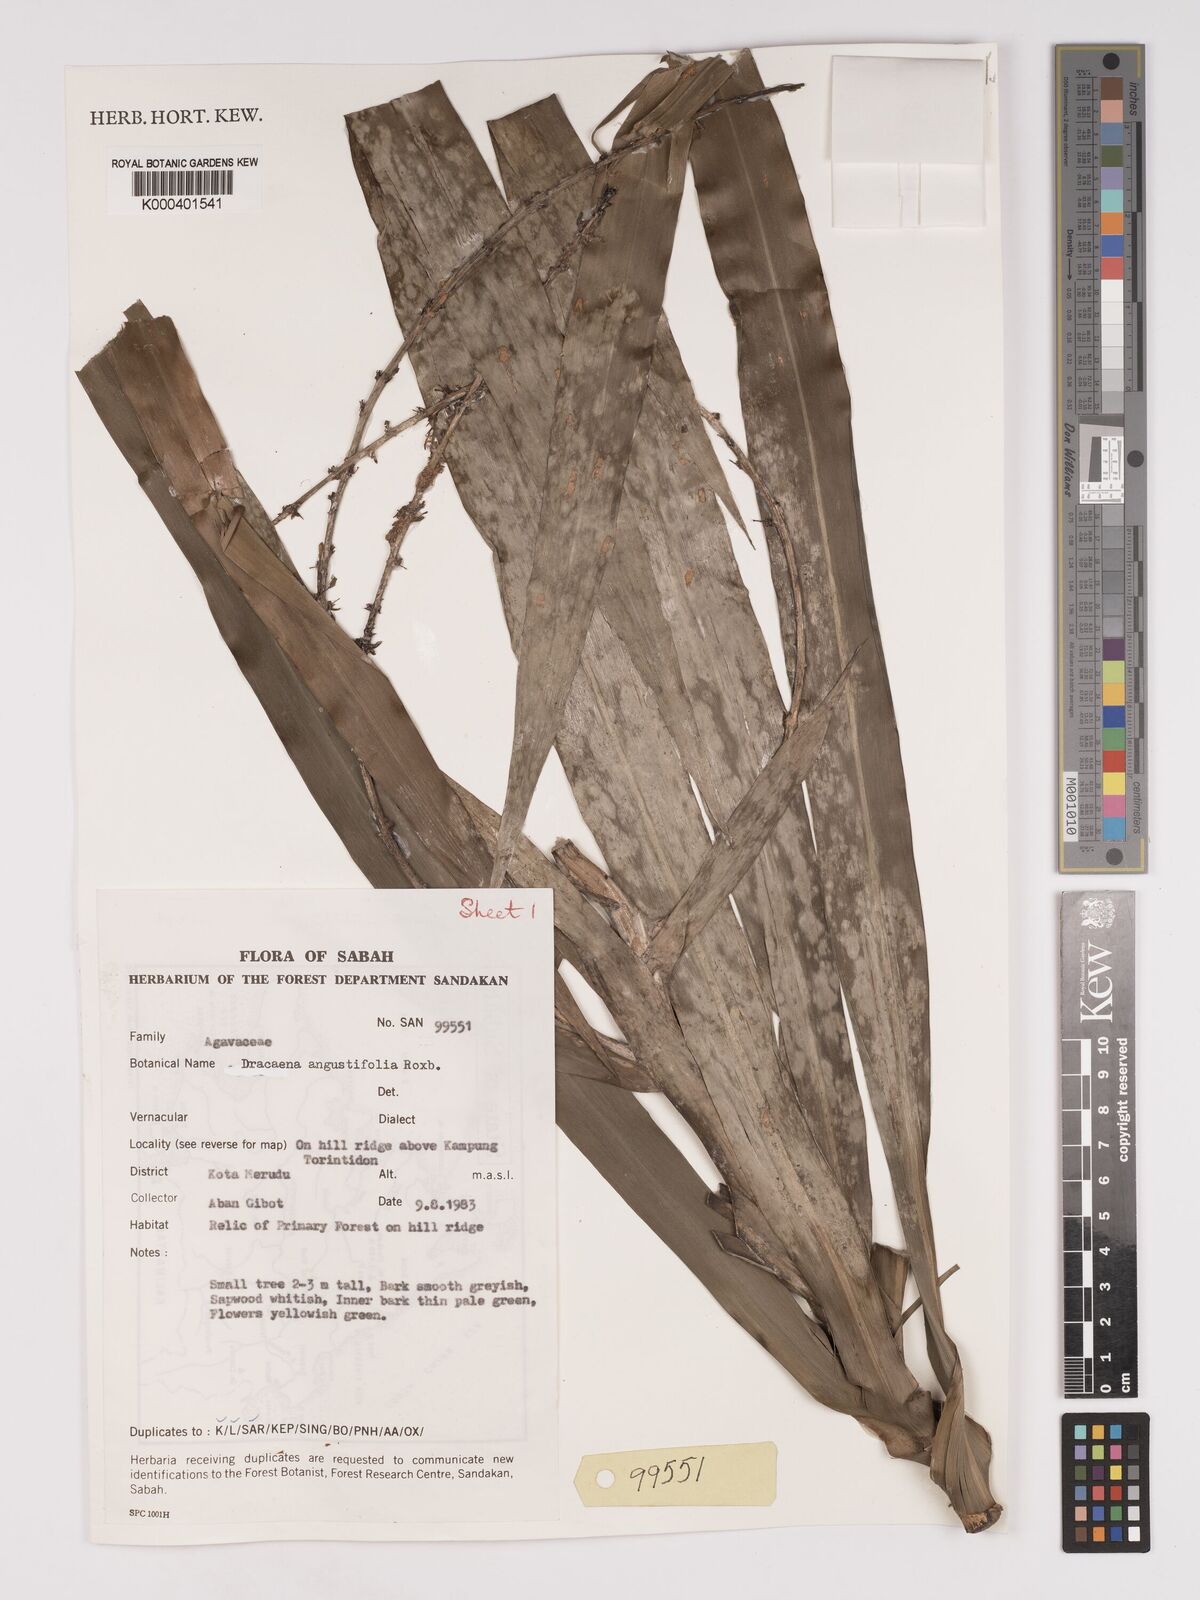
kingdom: Plantae
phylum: Tracheophyta
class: Liliopsida
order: Asparagales
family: Asparagaceae
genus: Dracaena
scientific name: Dracaena angustifolia
